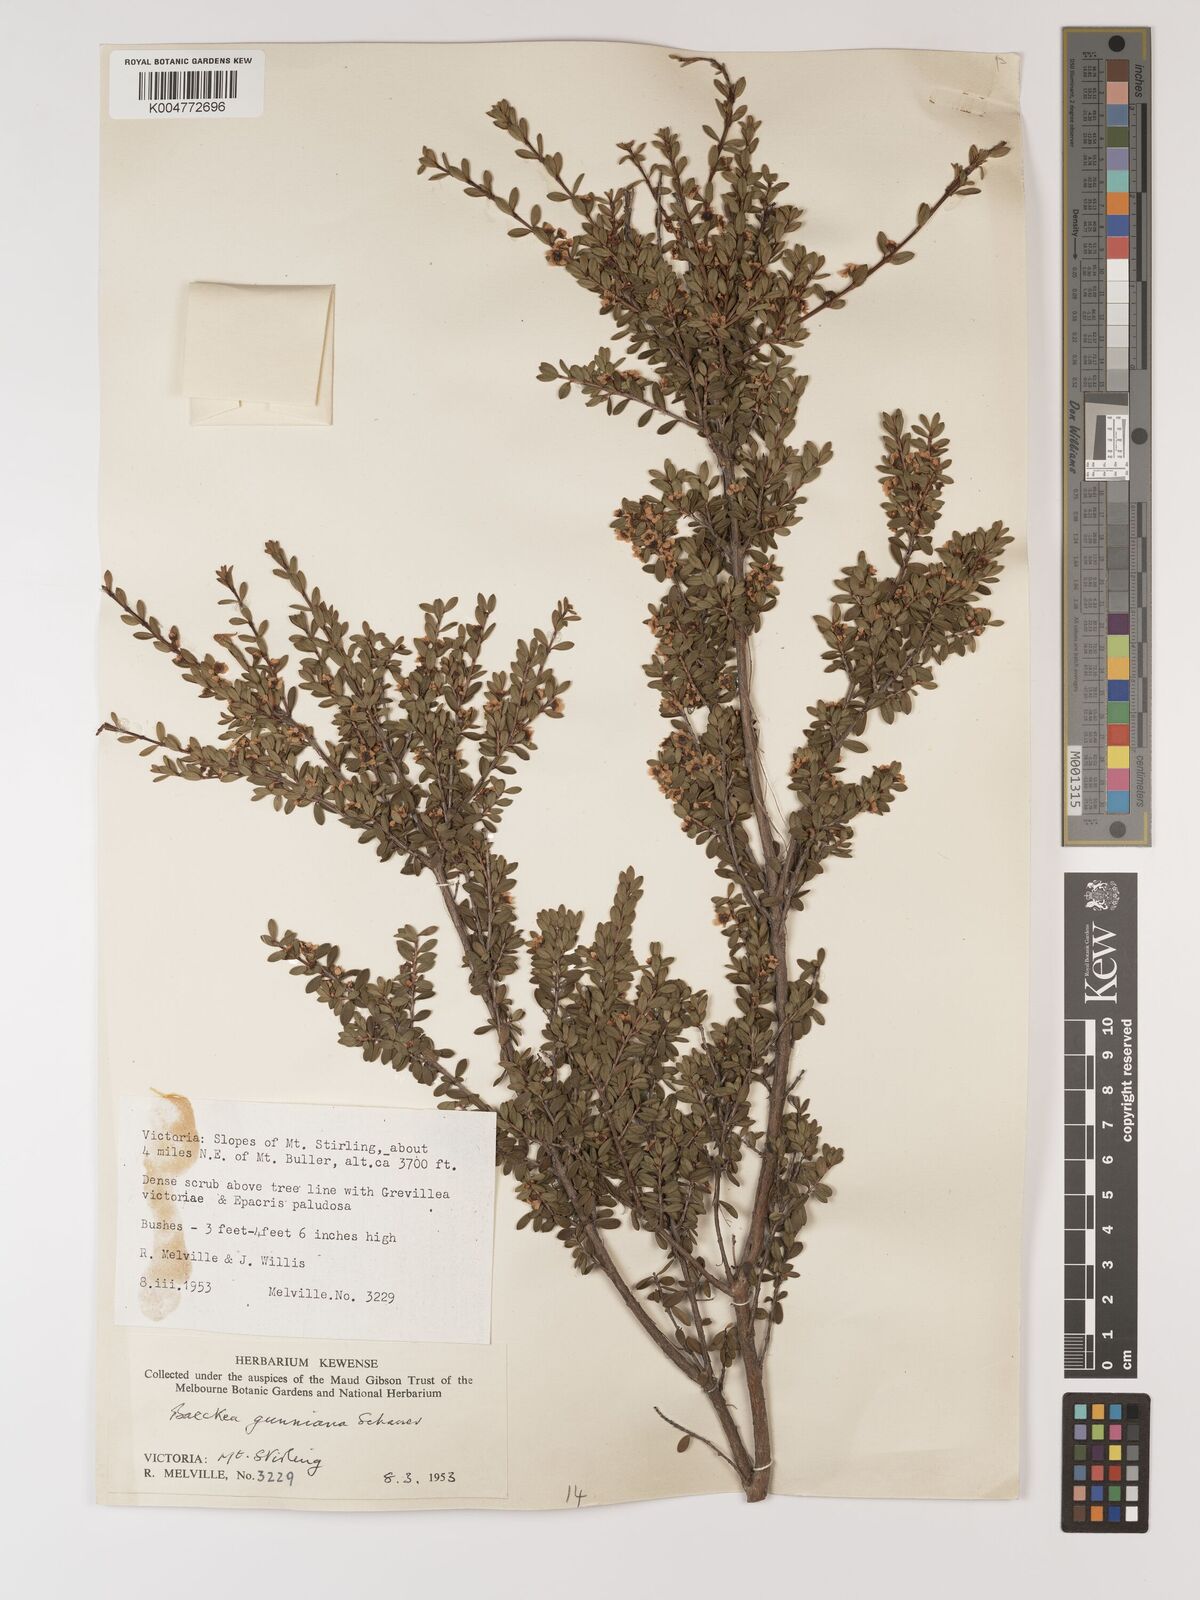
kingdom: Plantae
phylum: Tracheophyta
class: Magnoliopsida
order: Myrtales
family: Myrtaceae
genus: Baeckea
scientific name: Baeckea gunniana
